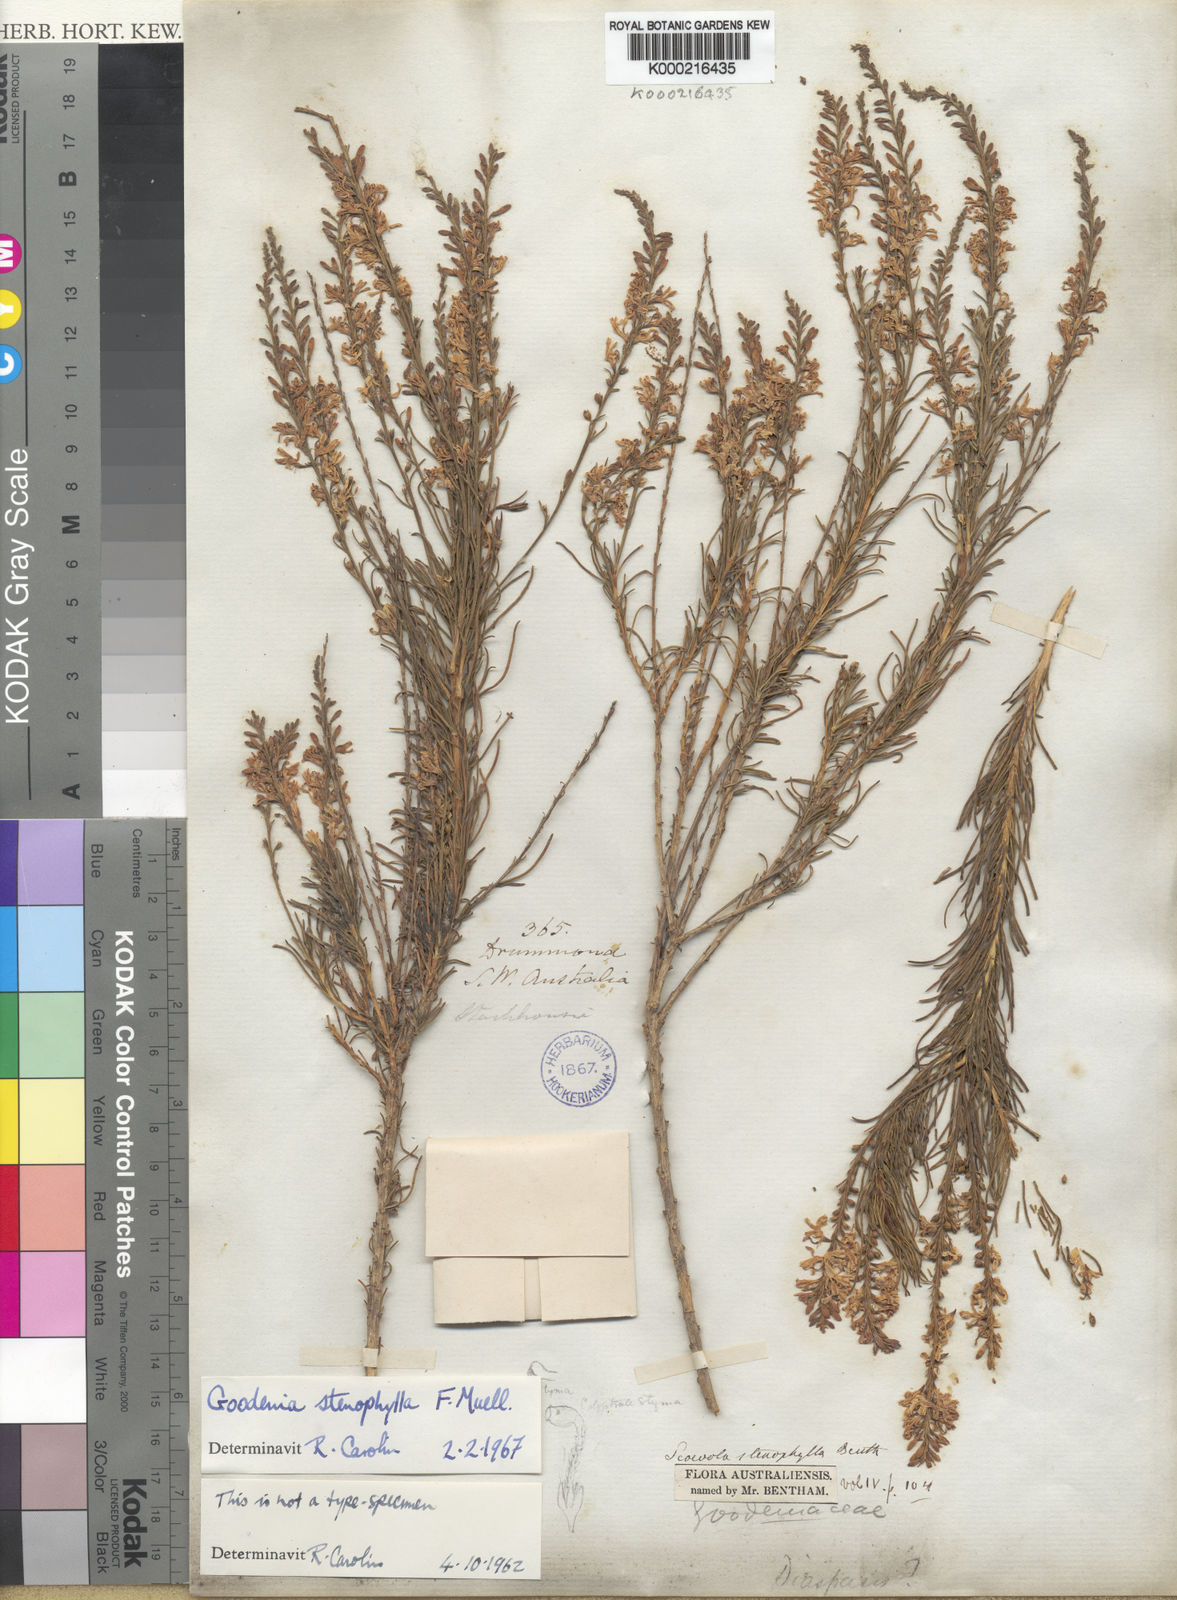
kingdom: Plantae
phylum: Tracheophyta
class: Magnoliopsida
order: Asterales
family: Goodeniaceae
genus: Goodenia
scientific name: Goodenia stenophylla
